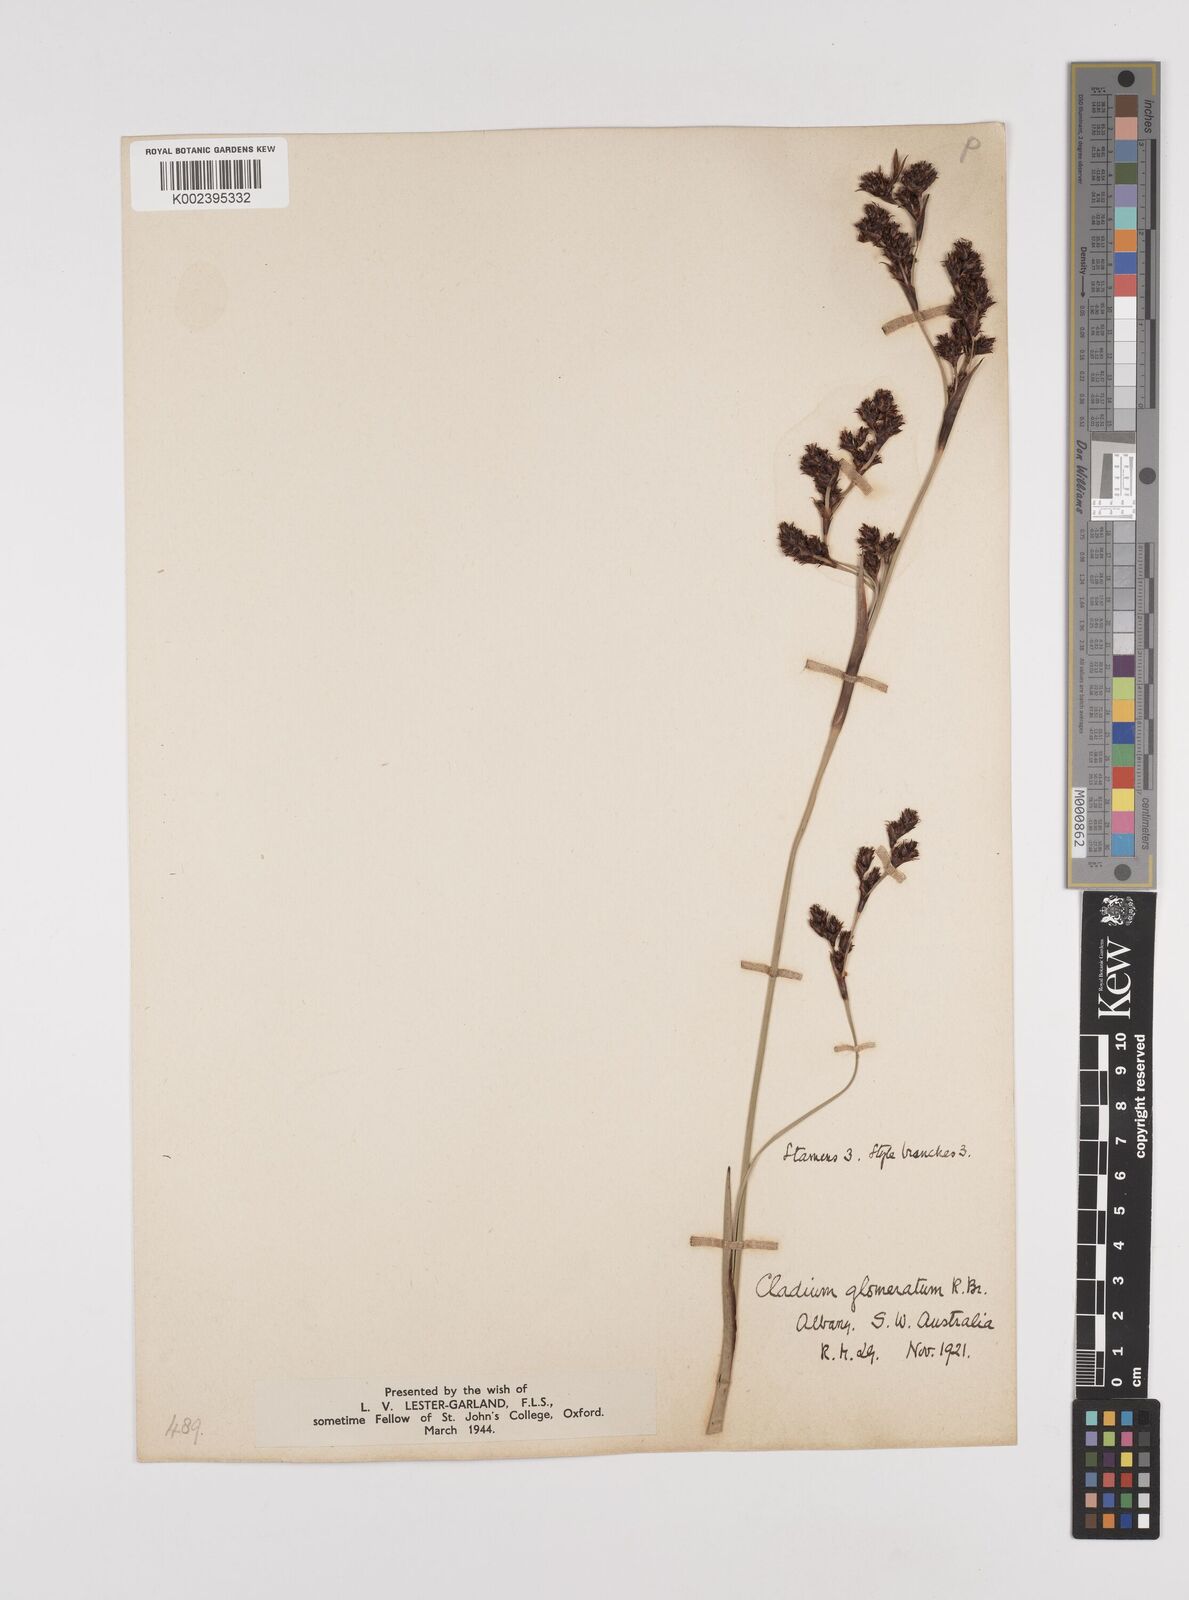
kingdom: Plantae
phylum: Tracheophyta
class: Liliopsida
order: Poales
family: Cyperaceae
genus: Machaerina
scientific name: Machaerina rubiginosa
